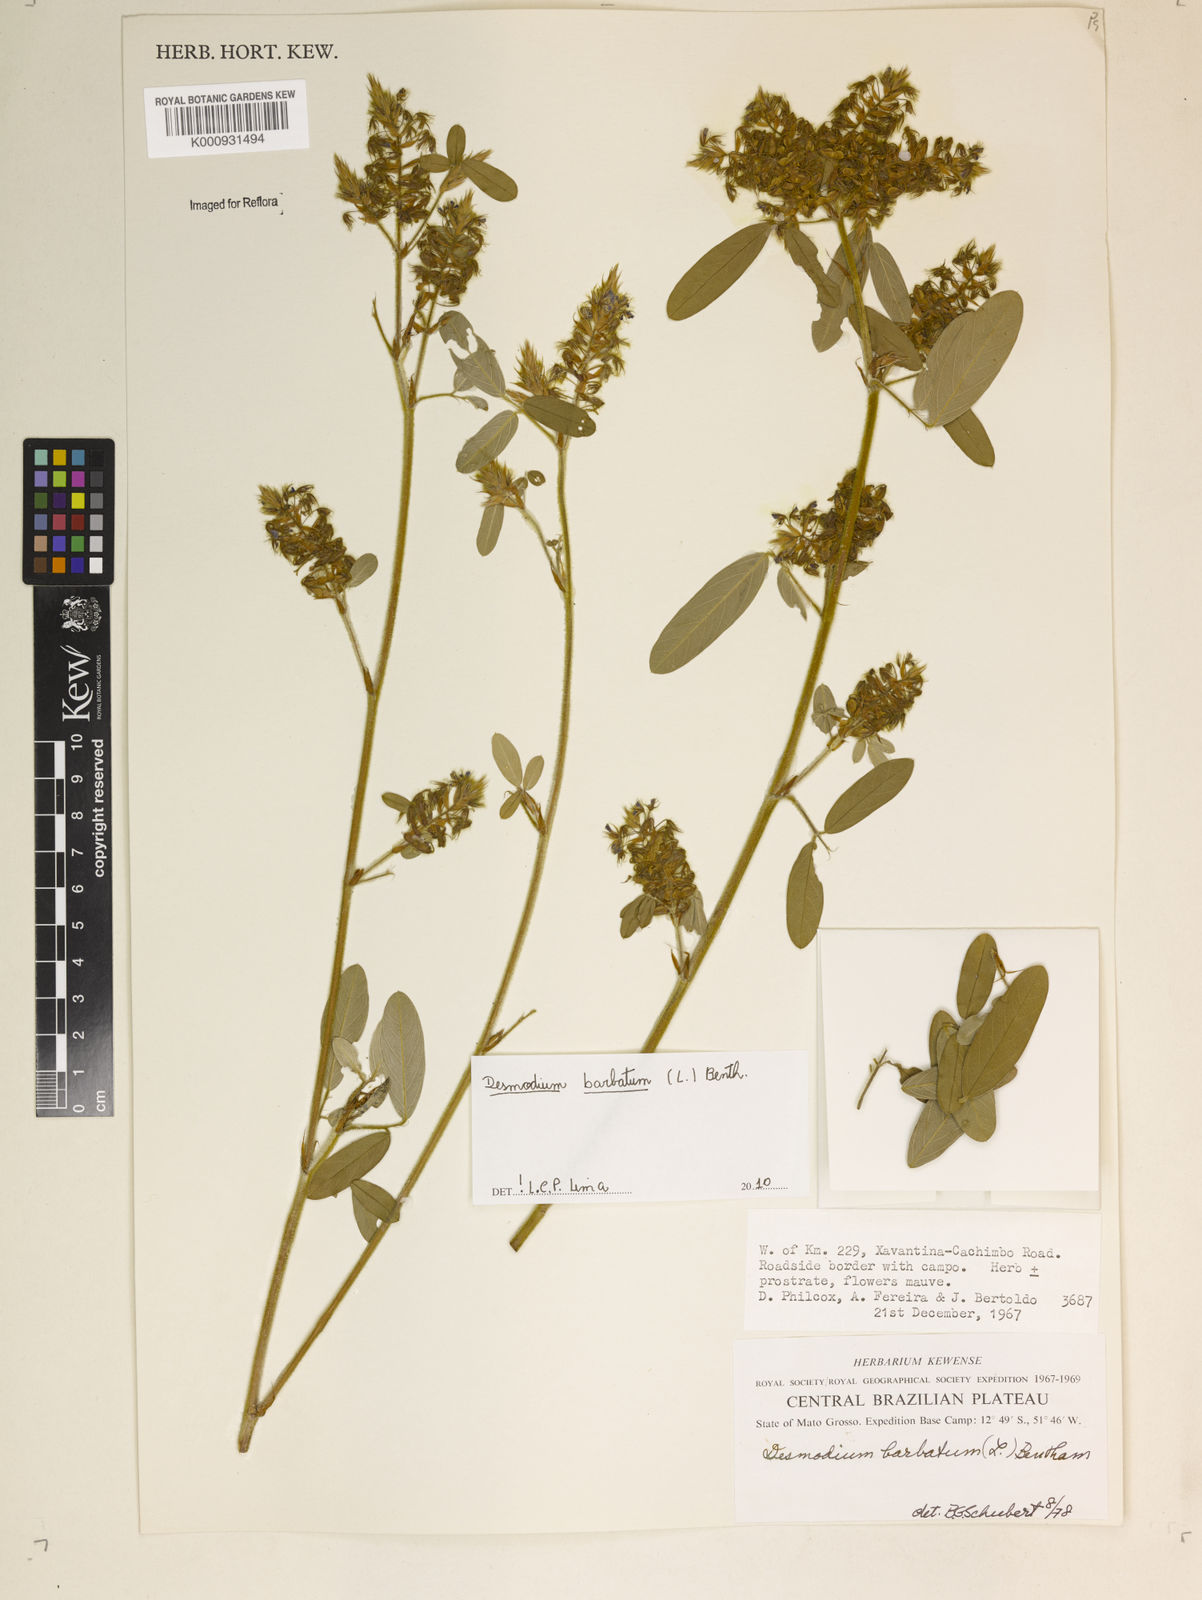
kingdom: Plantae
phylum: Tracheophyta
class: Magnoliopsida
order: Fabales
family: Fabaceae
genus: Grona
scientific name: Grona barbata
